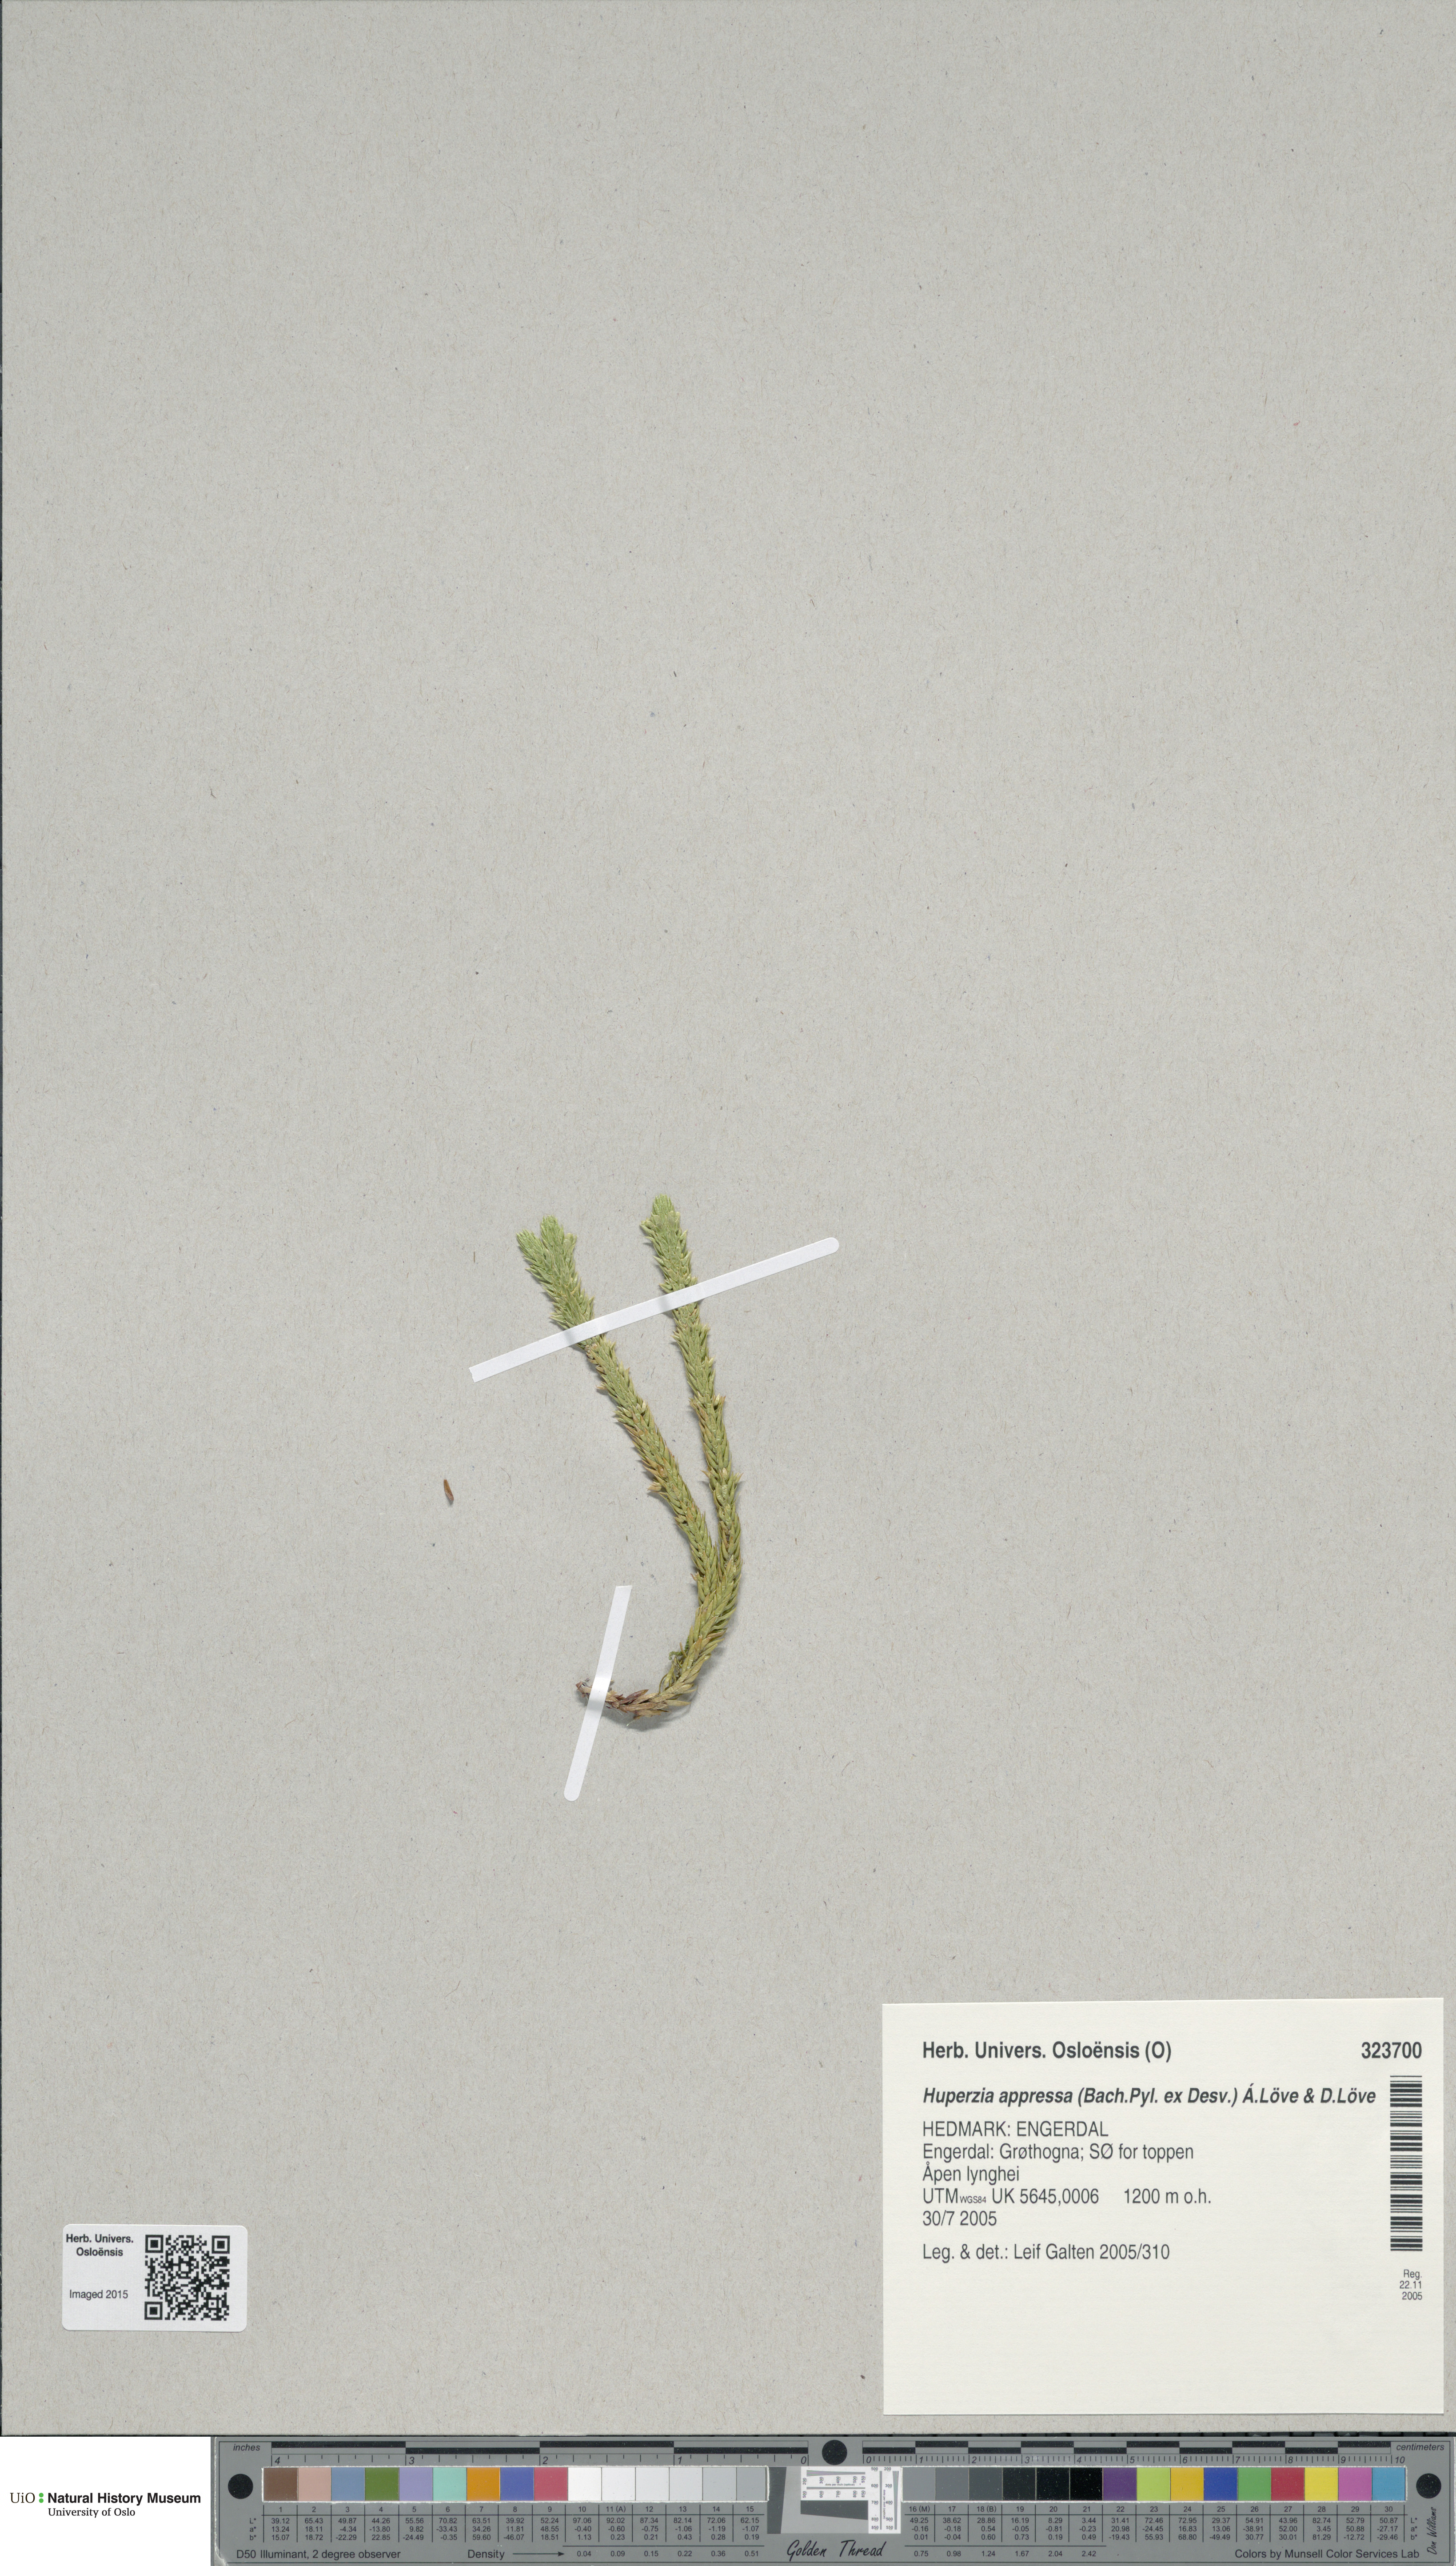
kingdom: Plantae
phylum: Tracheophyta
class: Lycopodiopsida
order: Lycopodiales
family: Lycopodiaceae
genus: Huperzia
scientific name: Huperzia selago
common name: Northern firmoss
